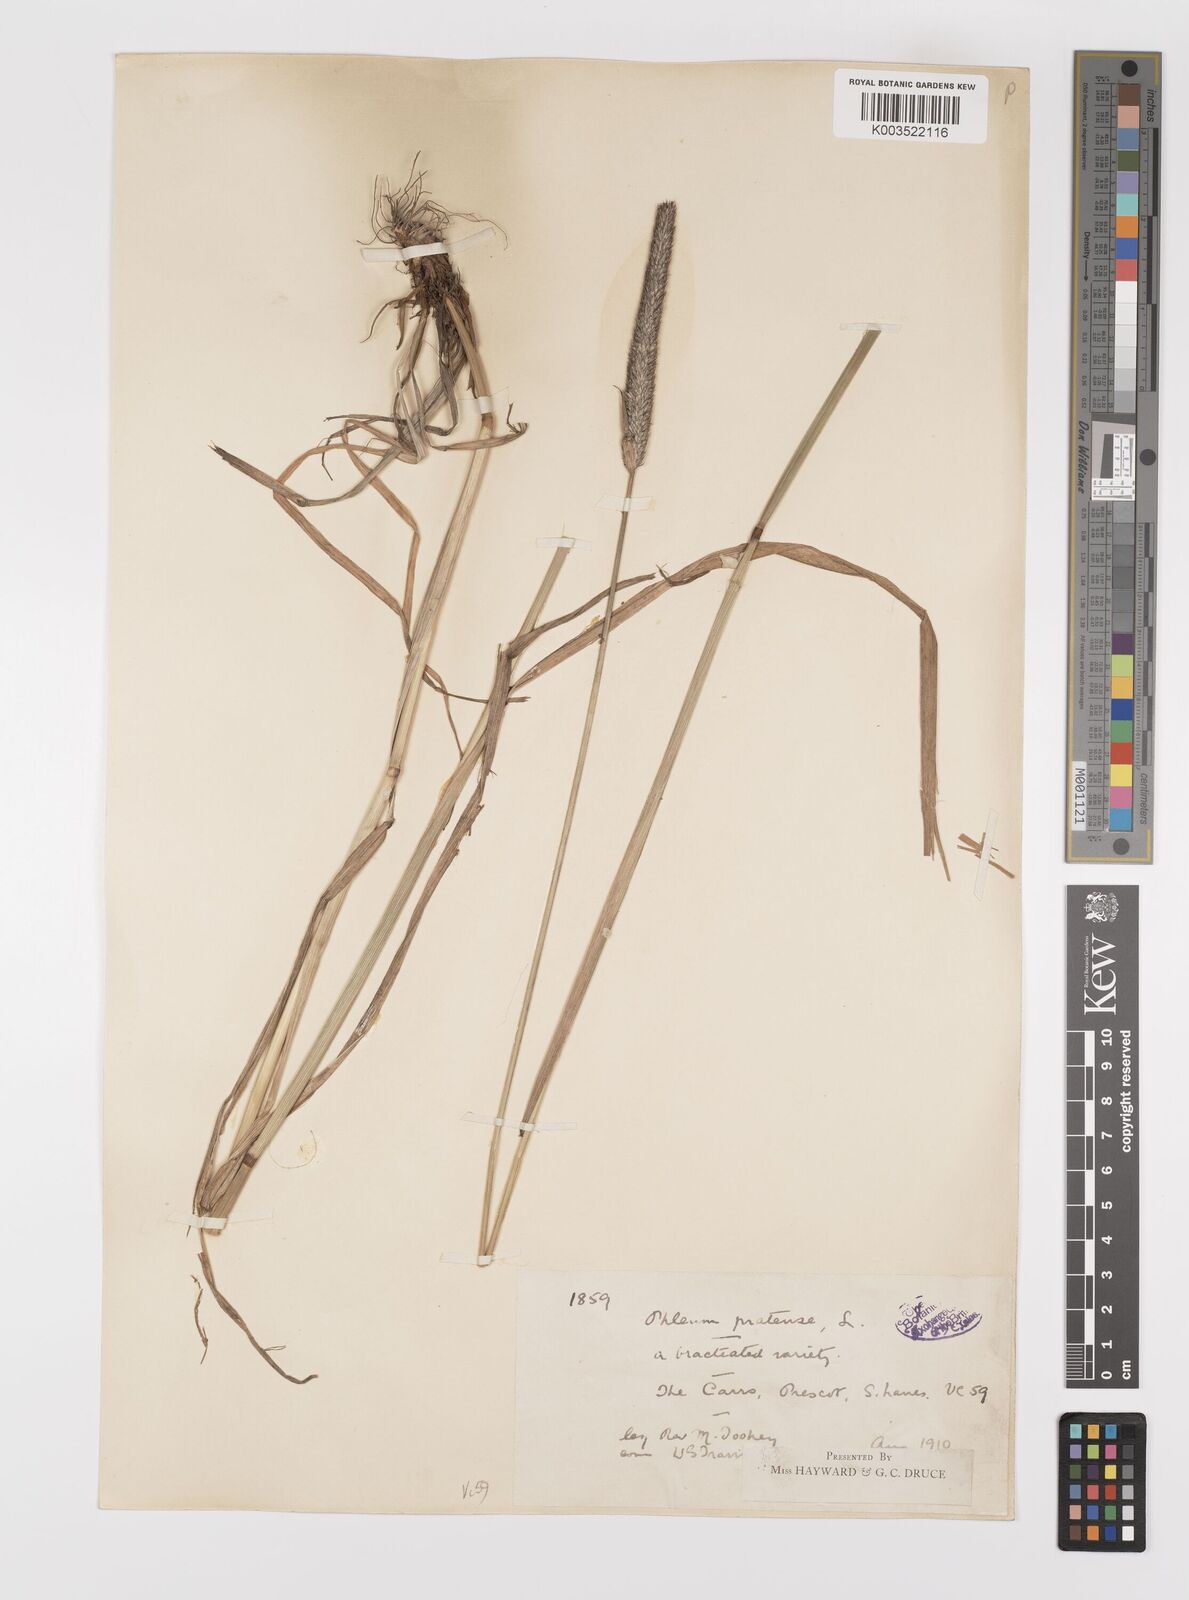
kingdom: Plantae
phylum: Tracheophyta
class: Liliopsida
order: Poales
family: Poaceae
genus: Phleum
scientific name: Phleum pratense
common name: Timothy grass
